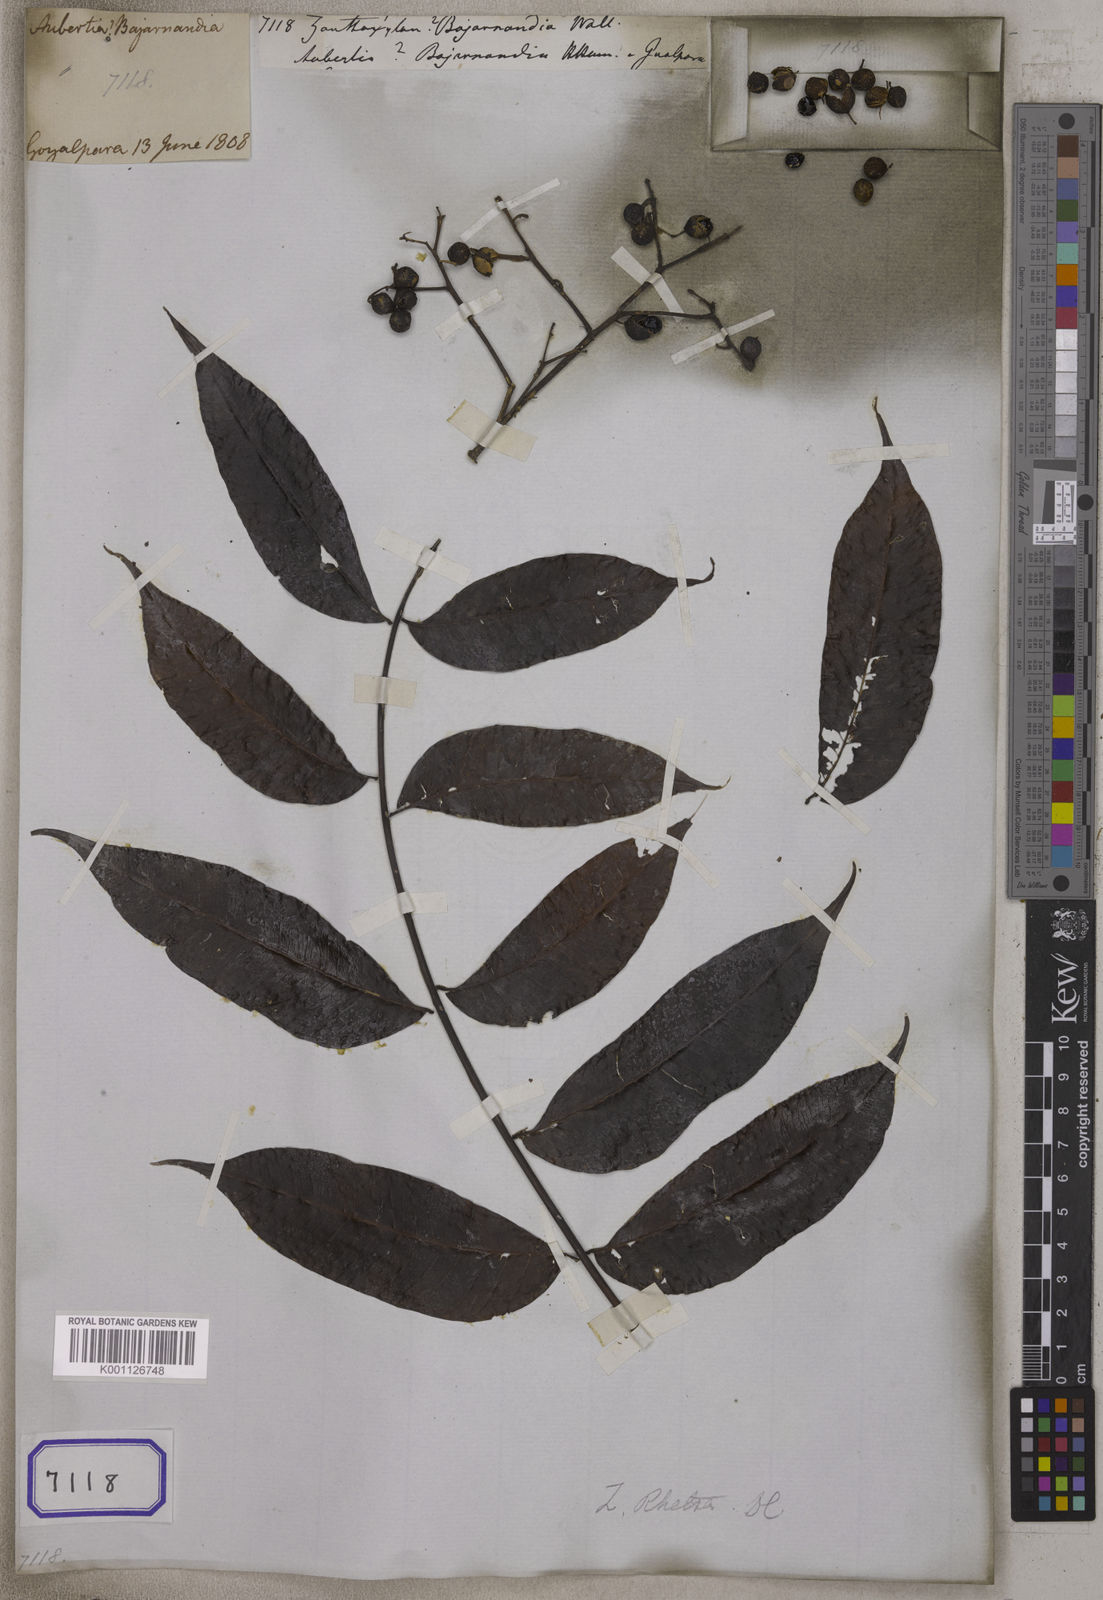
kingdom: Plantae
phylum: Tracheophyta
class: Magnoliopsida
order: Sapindales
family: Rutaceae
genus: Zanthoxylum
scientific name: Zanthoxylum
